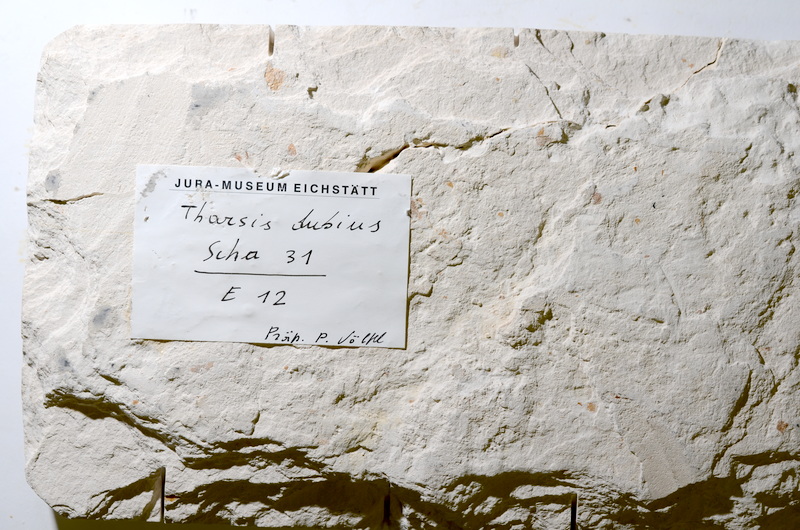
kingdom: Animalia
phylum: Chordata
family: Ascalaboidae
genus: Tharsis
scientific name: Tharsis dubius
